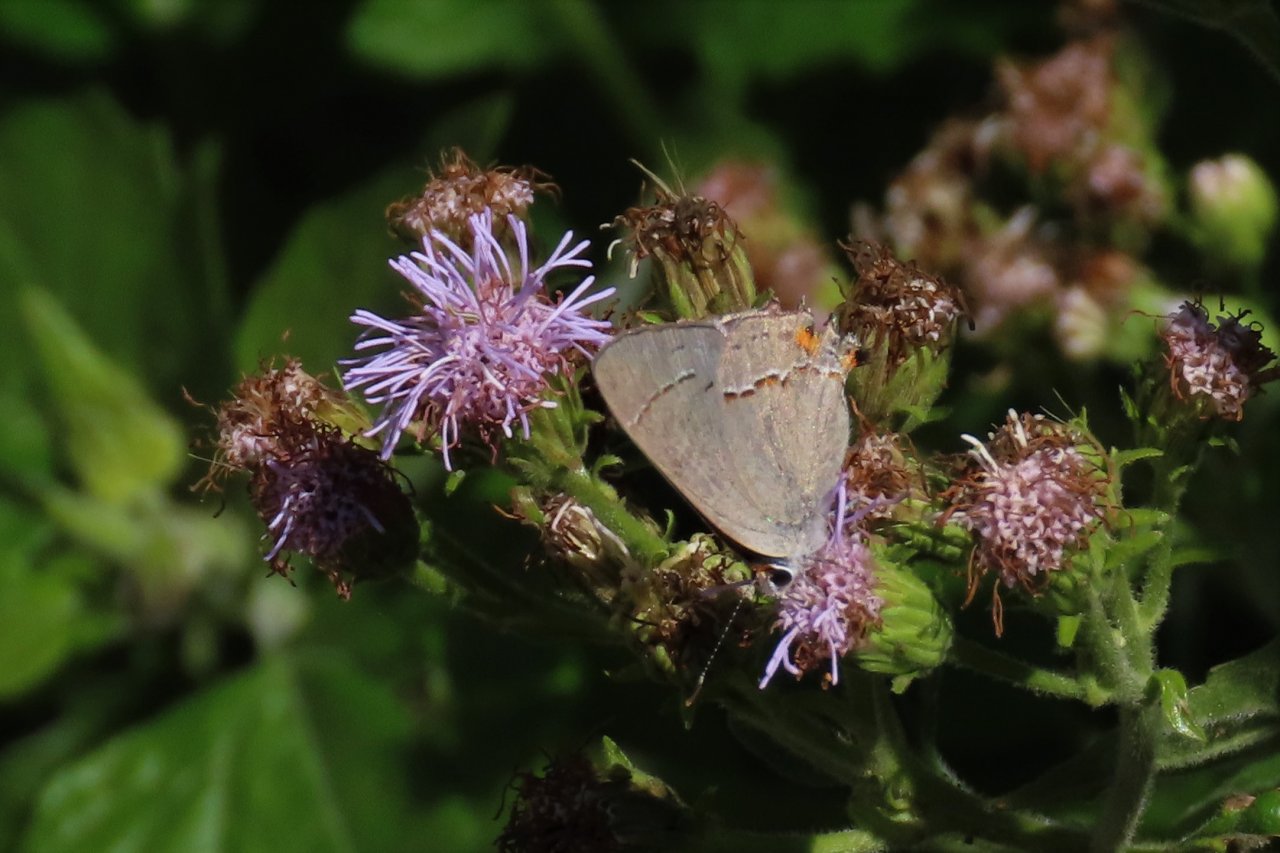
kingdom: Animalia
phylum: Arthropoda
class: Insecta
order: Lepidoptera
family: Lycaenidae
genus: Strymon
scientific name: Strymon melinus
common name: Gray Hairstreak
